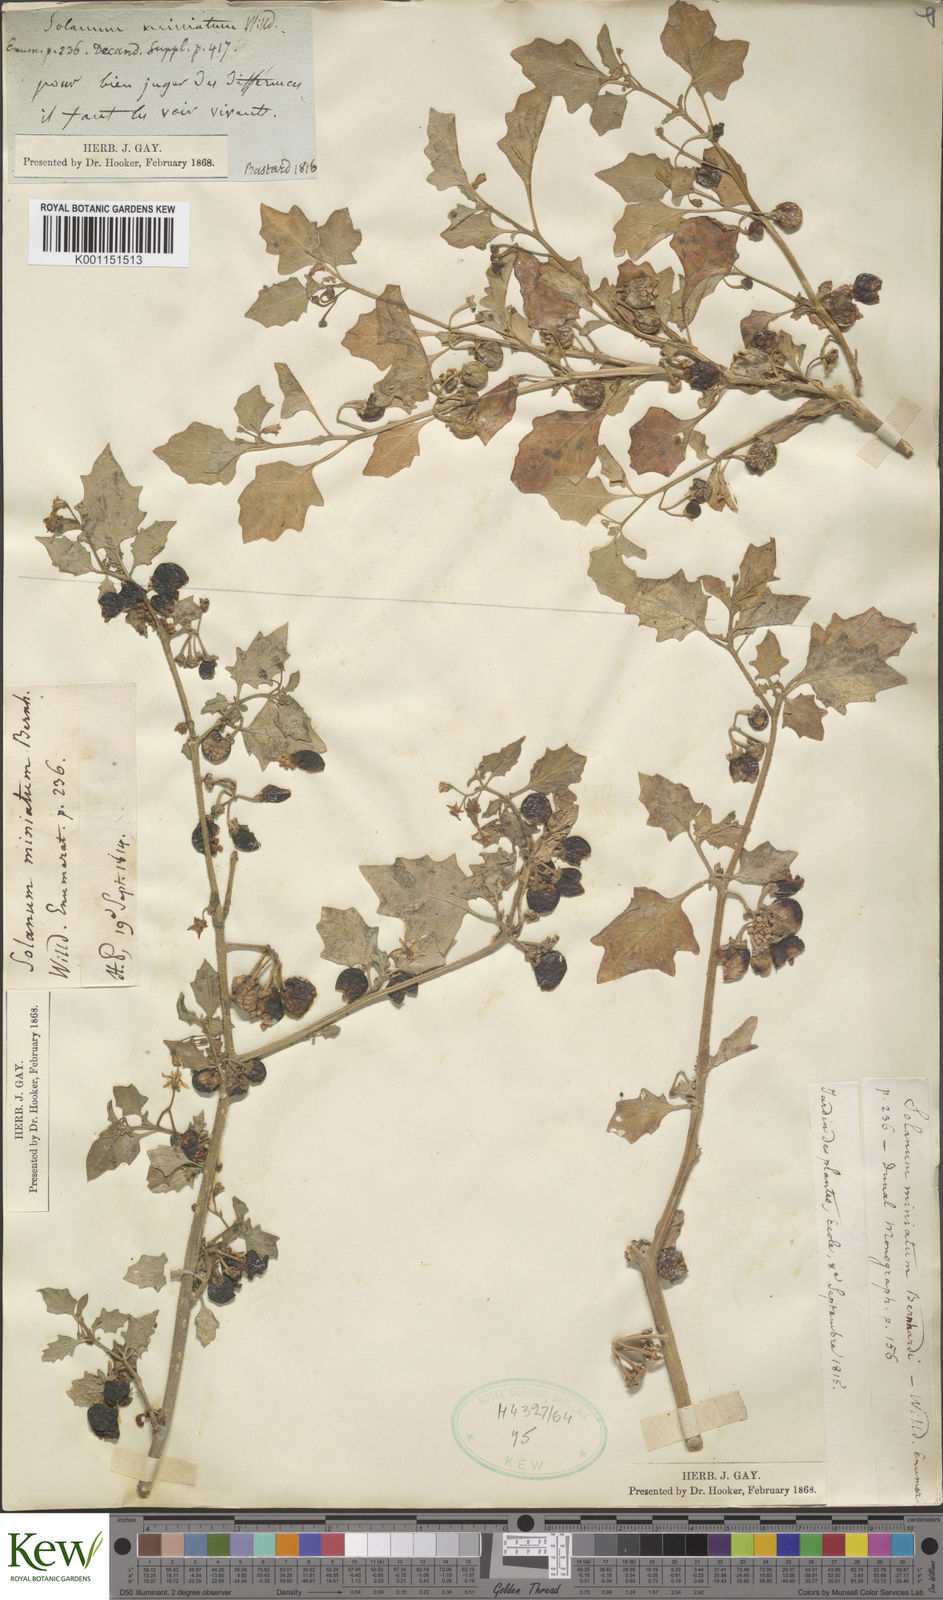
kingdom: Plantae
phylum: Tracheophyta
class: Magnoliopsida
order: Solanales
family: Solanaceae
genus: Solanum
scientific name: Solanum alatum
